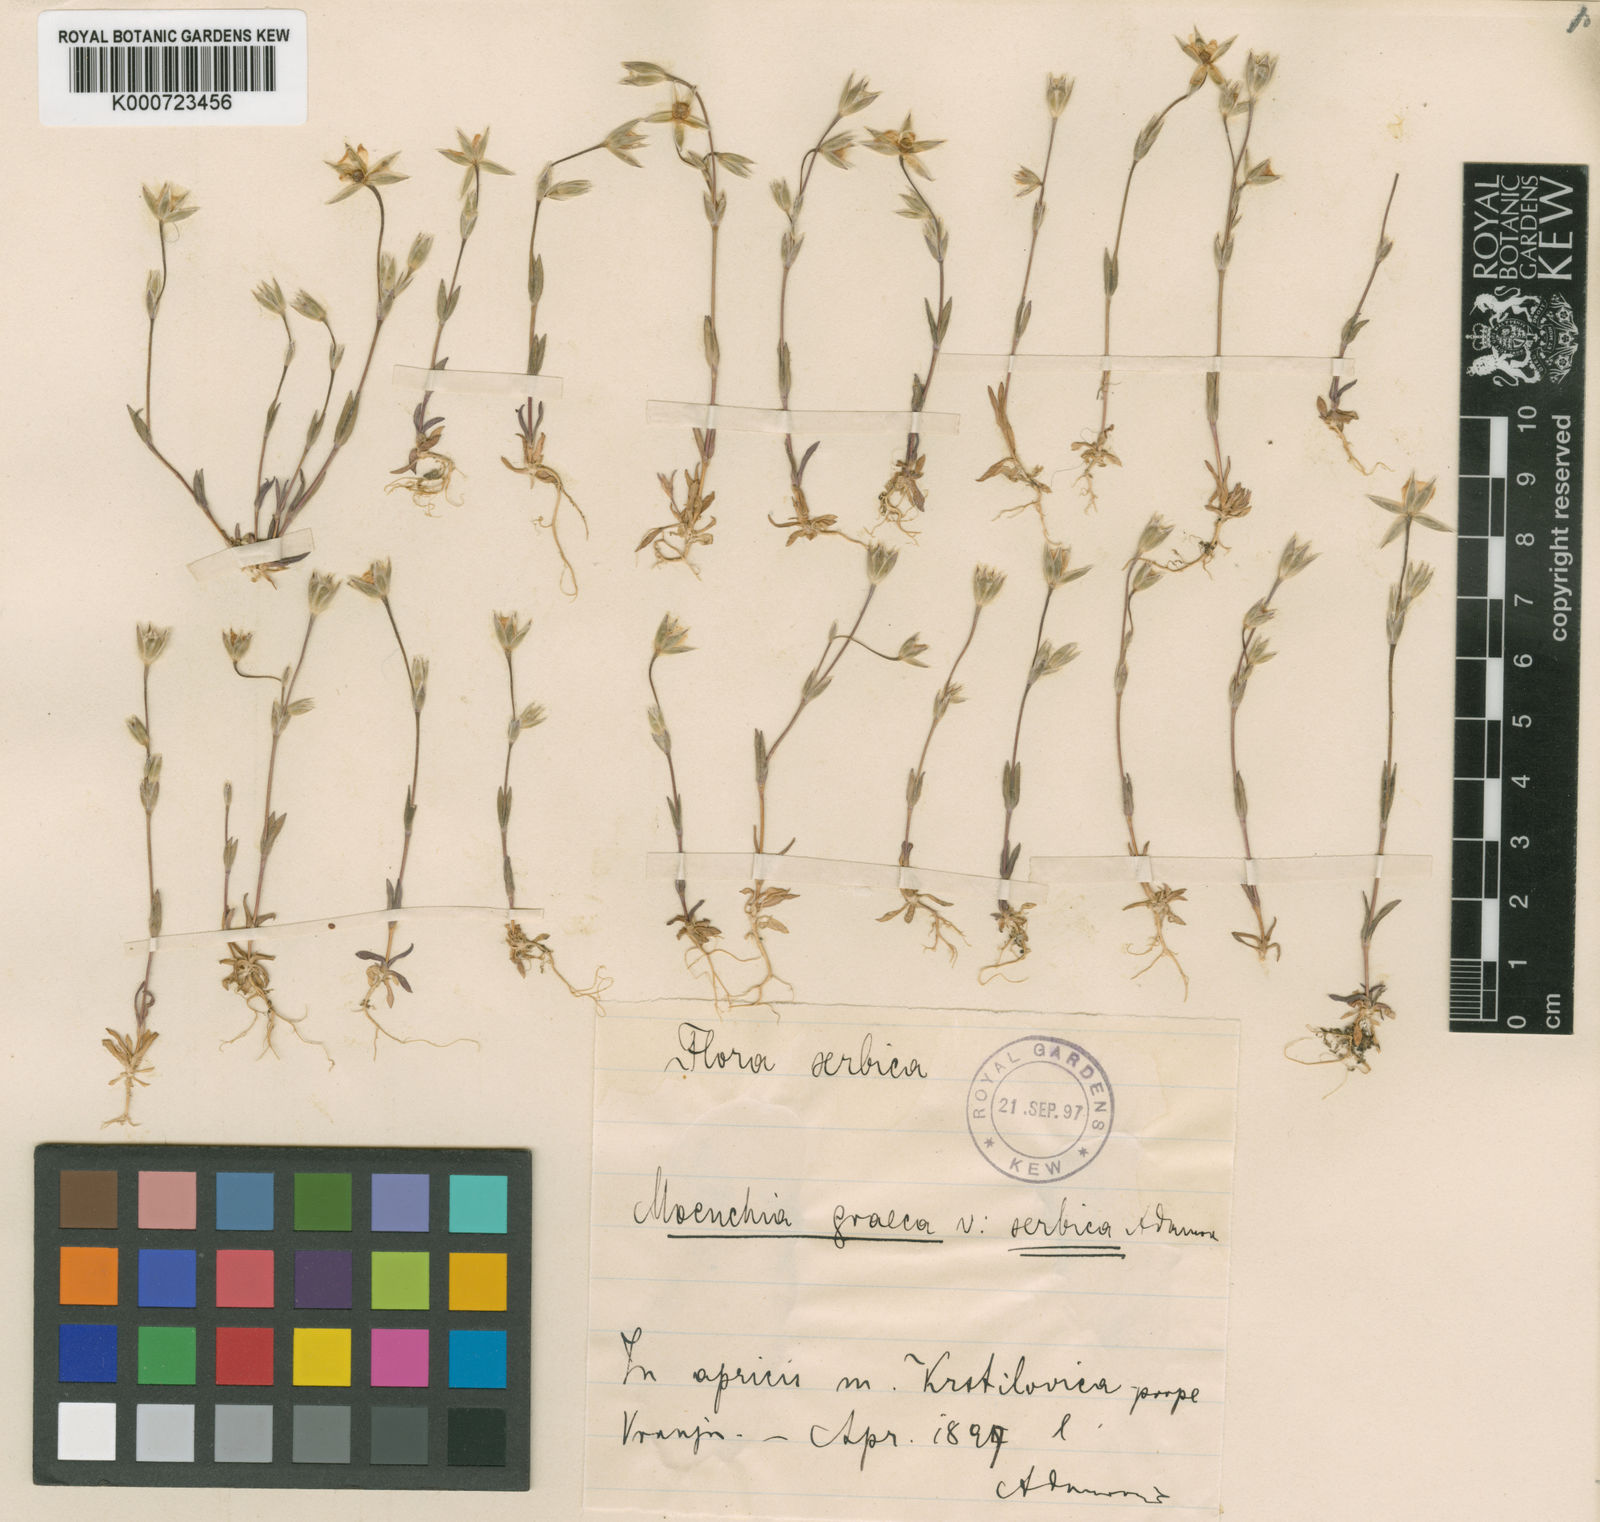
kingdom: Plantae
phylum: Tracheophyta
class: Magnoliopsida
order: Caryophyllales
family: Caryophyllaceae
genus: Moenchia
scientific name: Moenchia graeca
